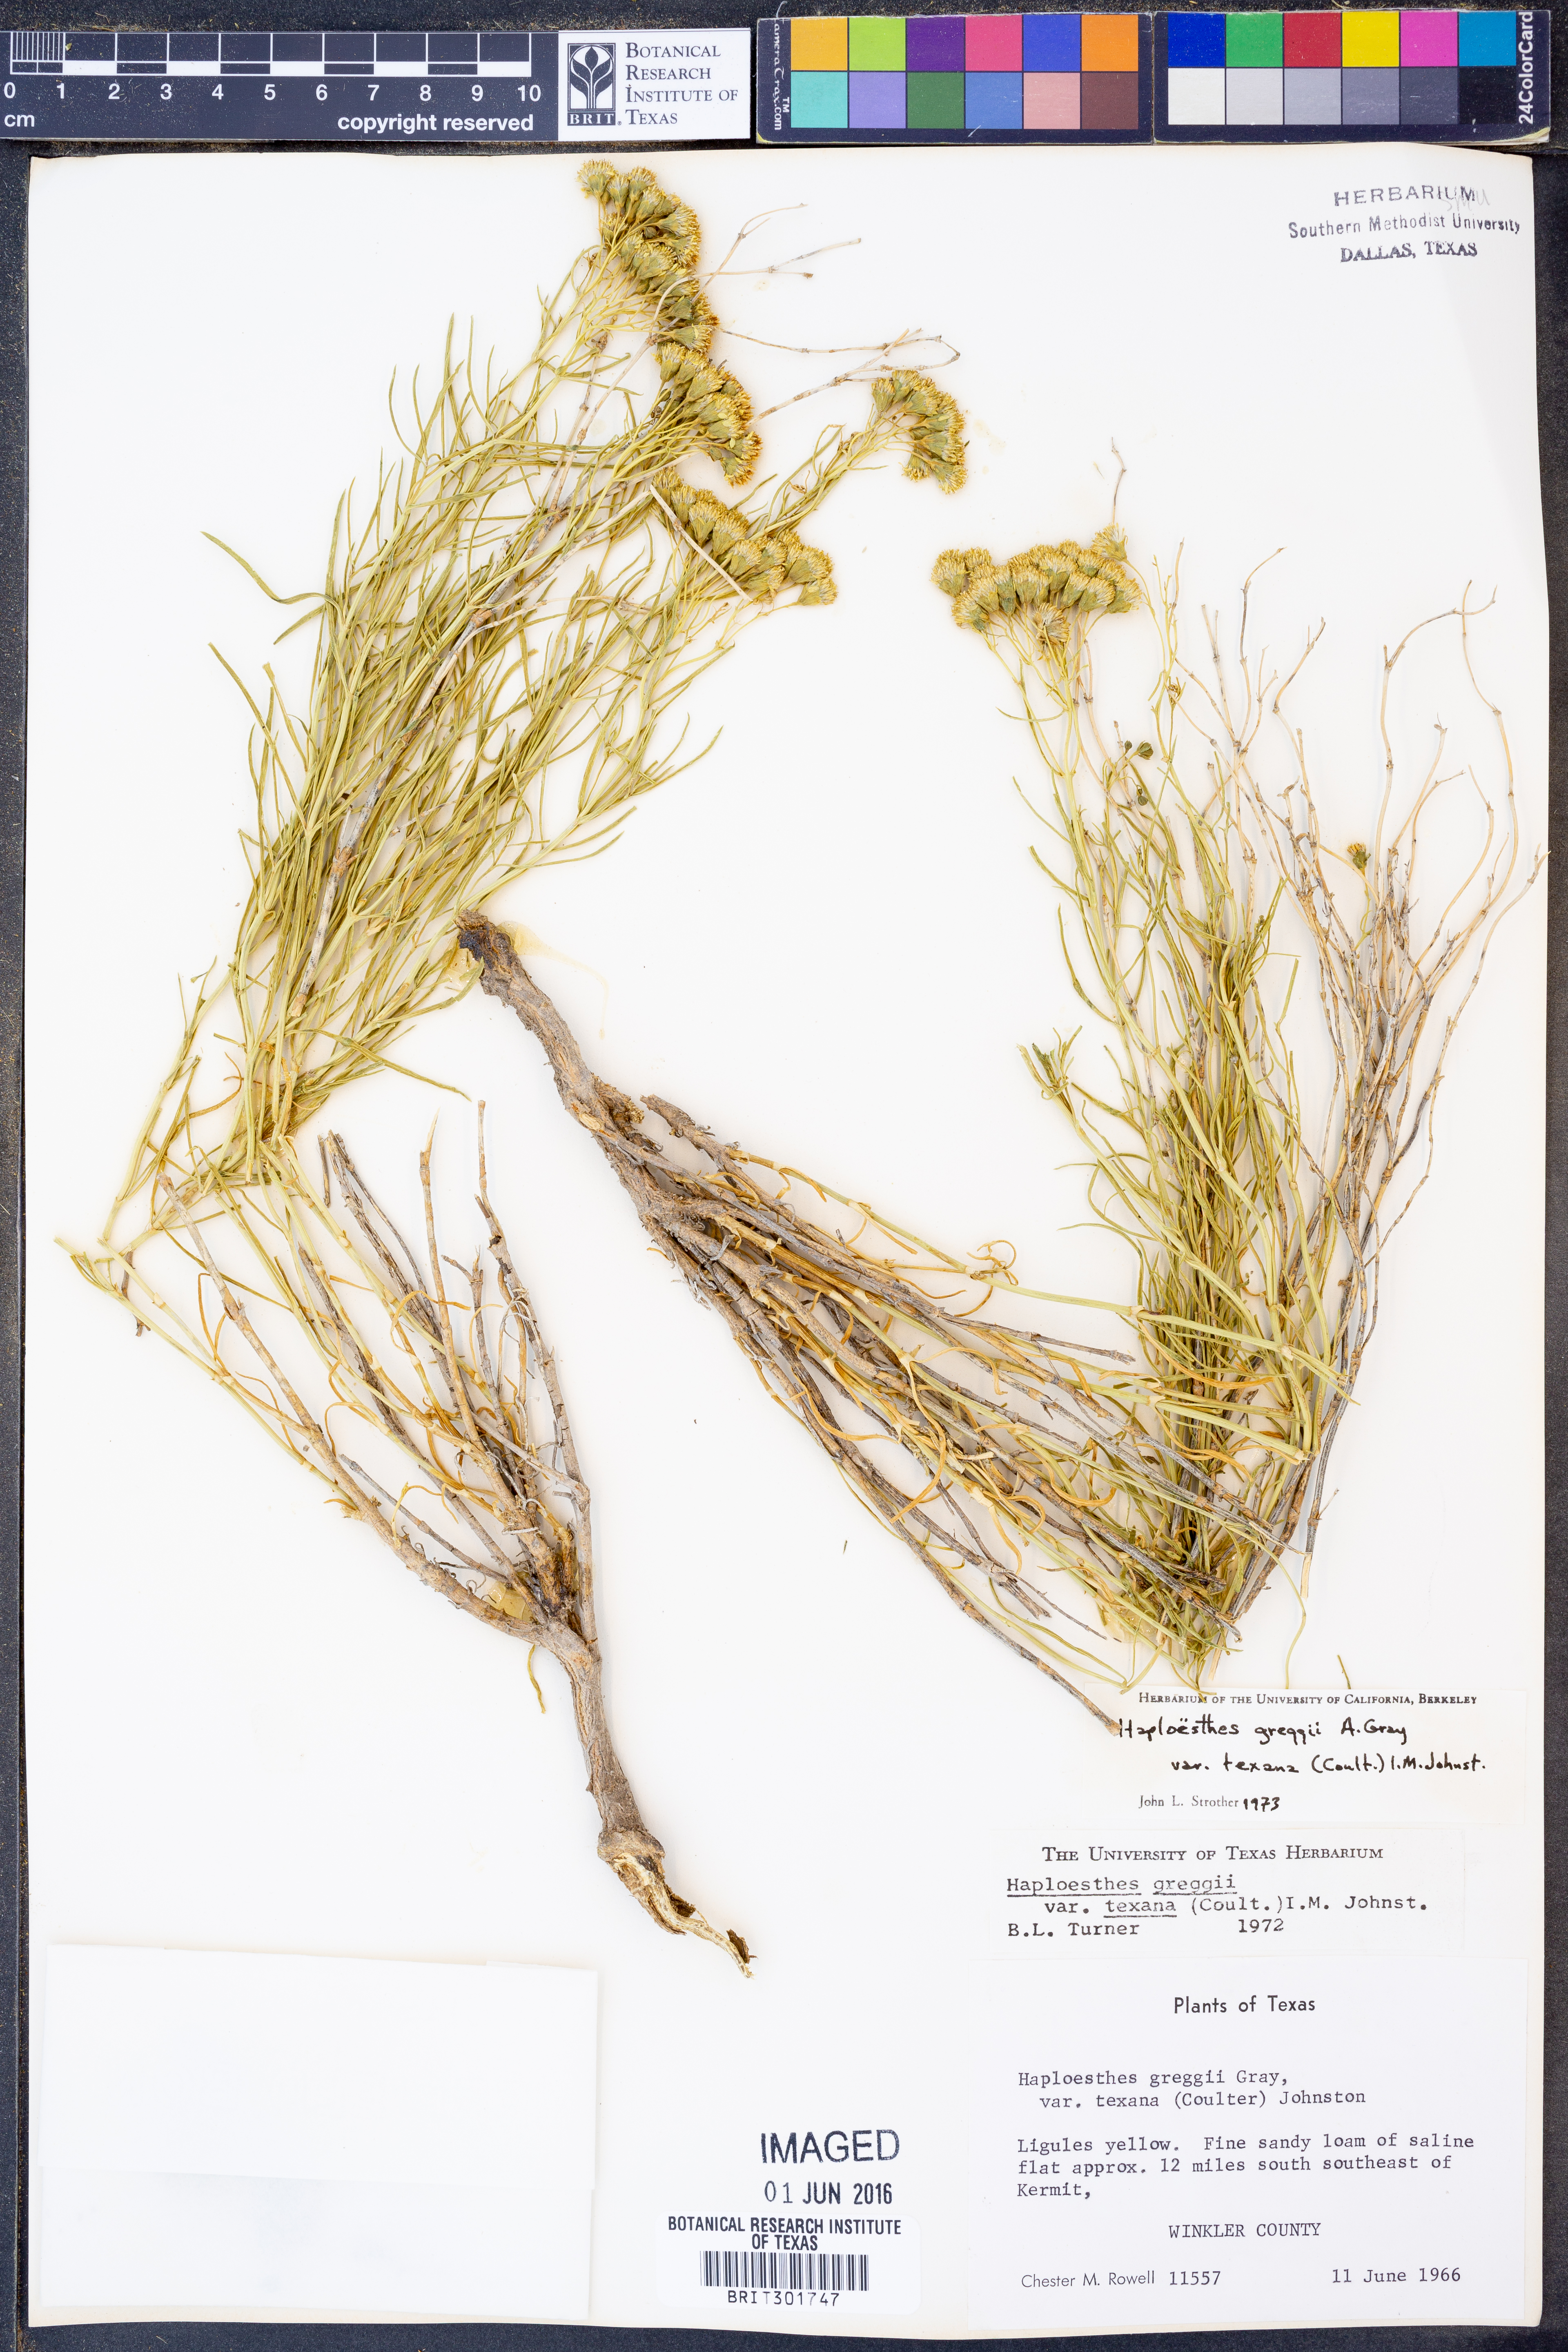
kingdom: Plantae
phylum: Tracheophyta
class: Magnoliopsida
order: Asterales
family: Asteraceae
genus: Haploesthes
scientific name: Haploesthes greggii
